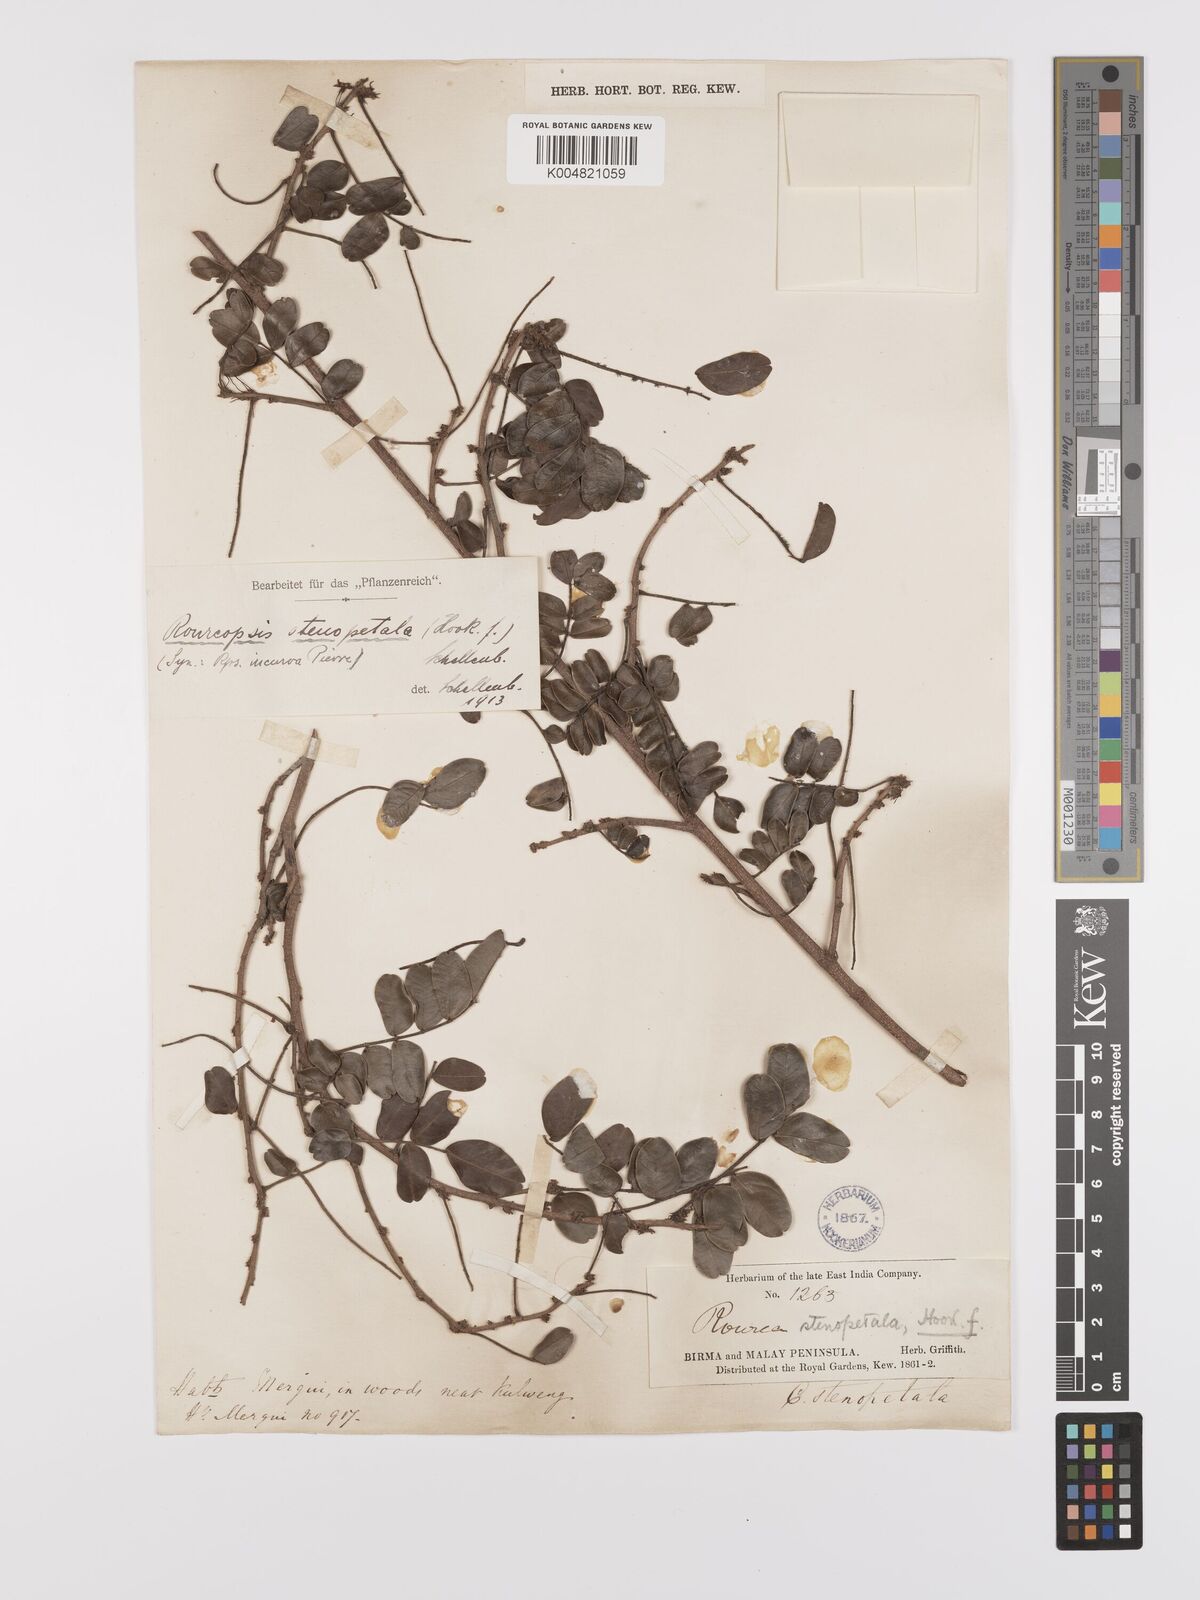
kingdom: Plantae
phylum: Tracheophyta
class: Magnoliopsida
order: Oxalidales
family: Connaraceae
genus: Rourea
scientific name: Rourea stenopetala
